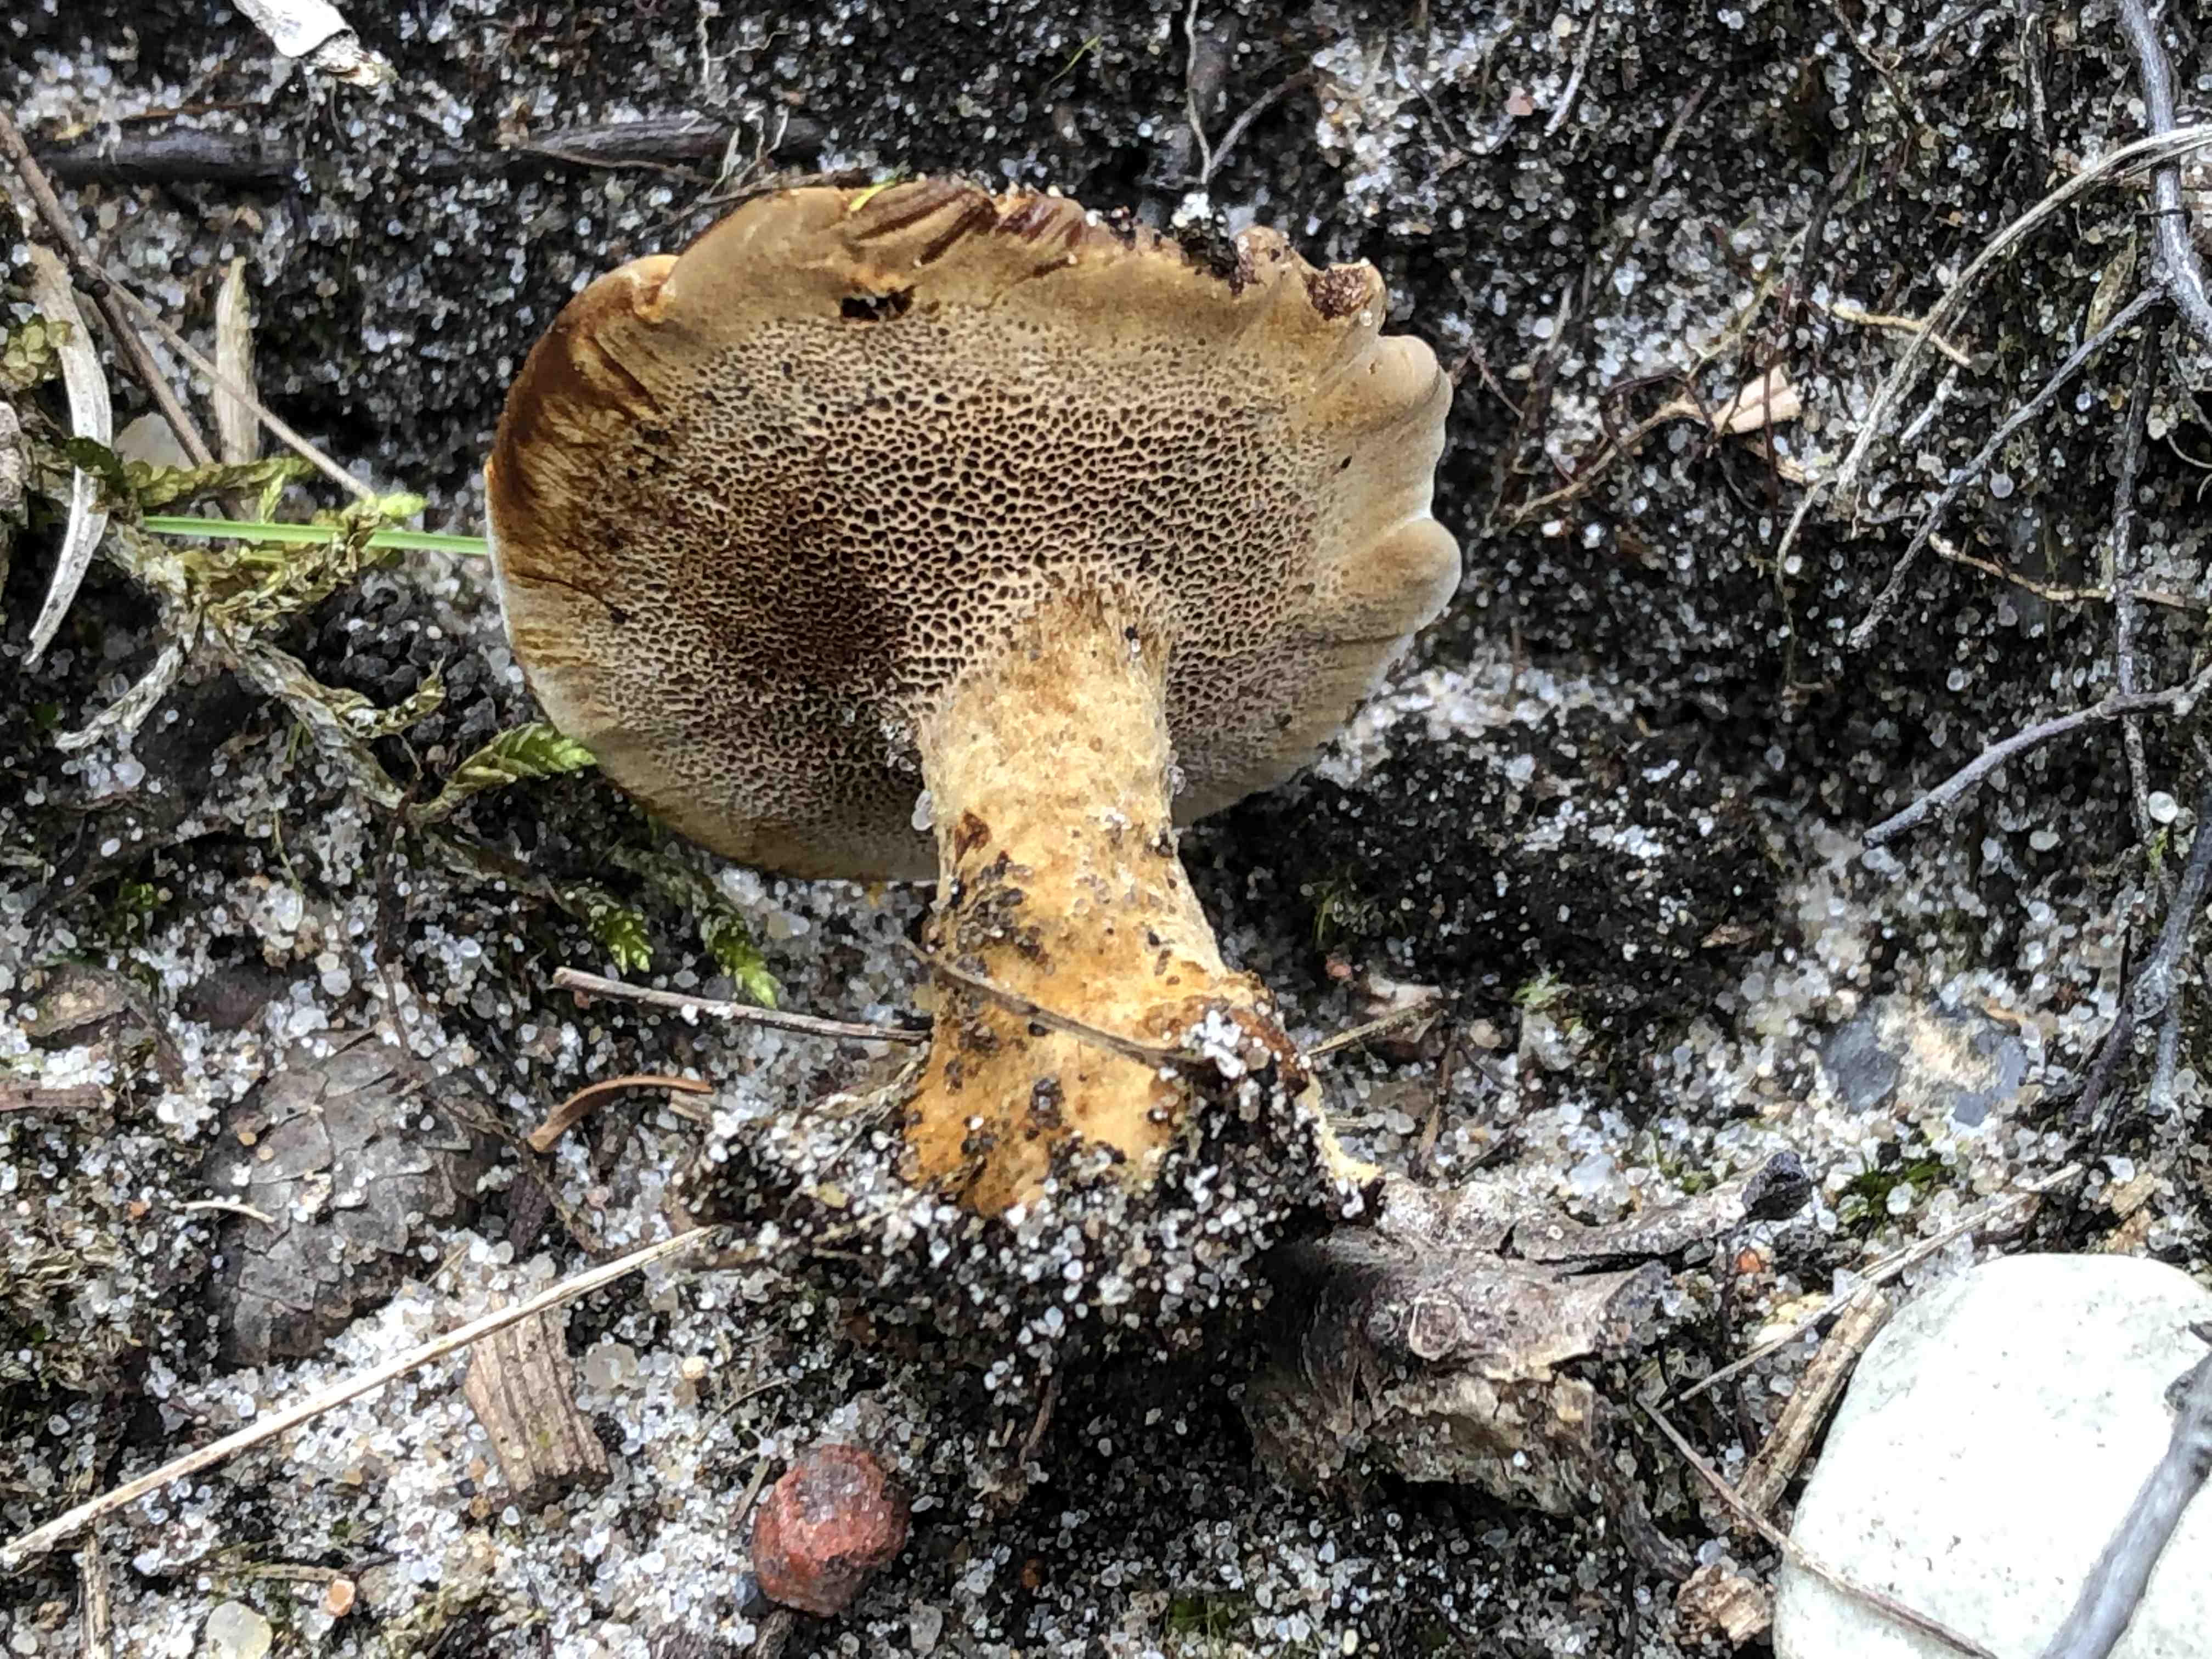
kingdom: Fungi
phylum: Basidiomycota
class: Agaricomycetes
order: Hymenochaetales
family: Hymenochaetaceae
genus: Coltricia
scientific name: Coltricia perennis
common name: almindelig sandporesvamp
